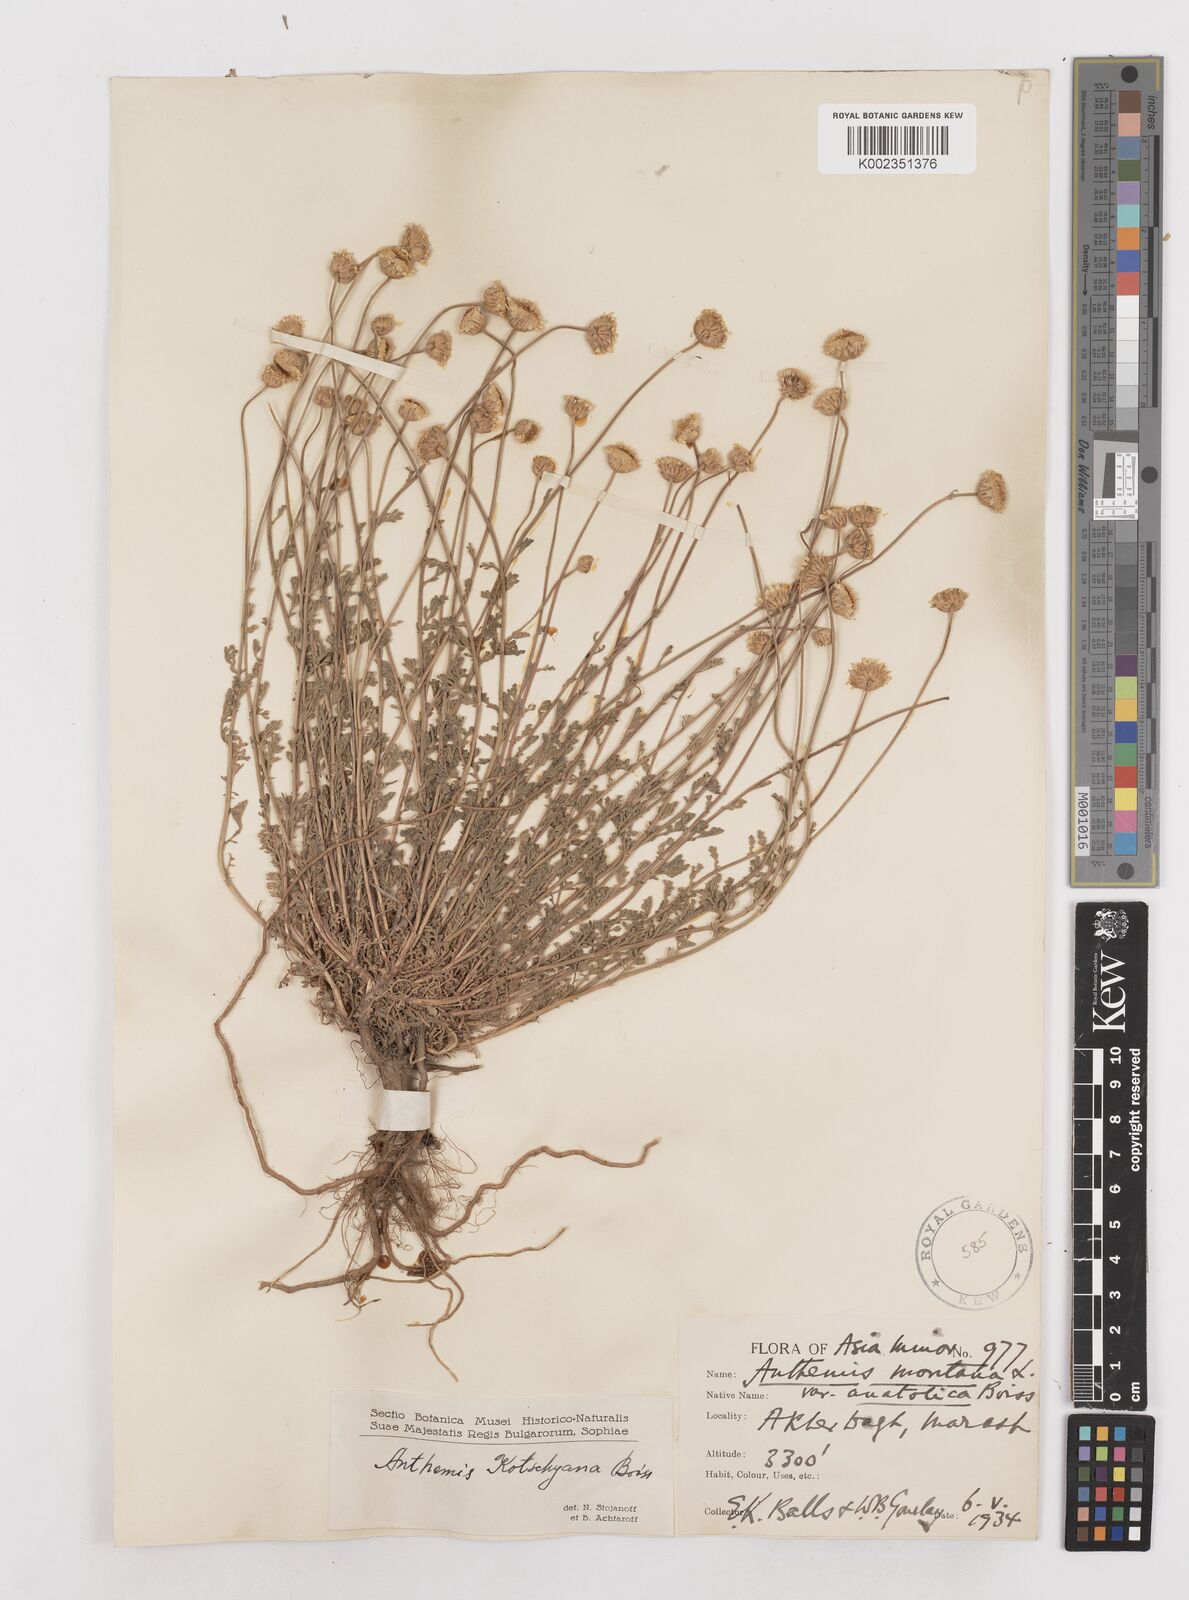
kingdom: Plantae
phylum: Tracheophyta
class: Magnoliopsida
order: Asterales
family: Asteraceae
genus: Anthemis
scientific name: Anthemis kotschyana
